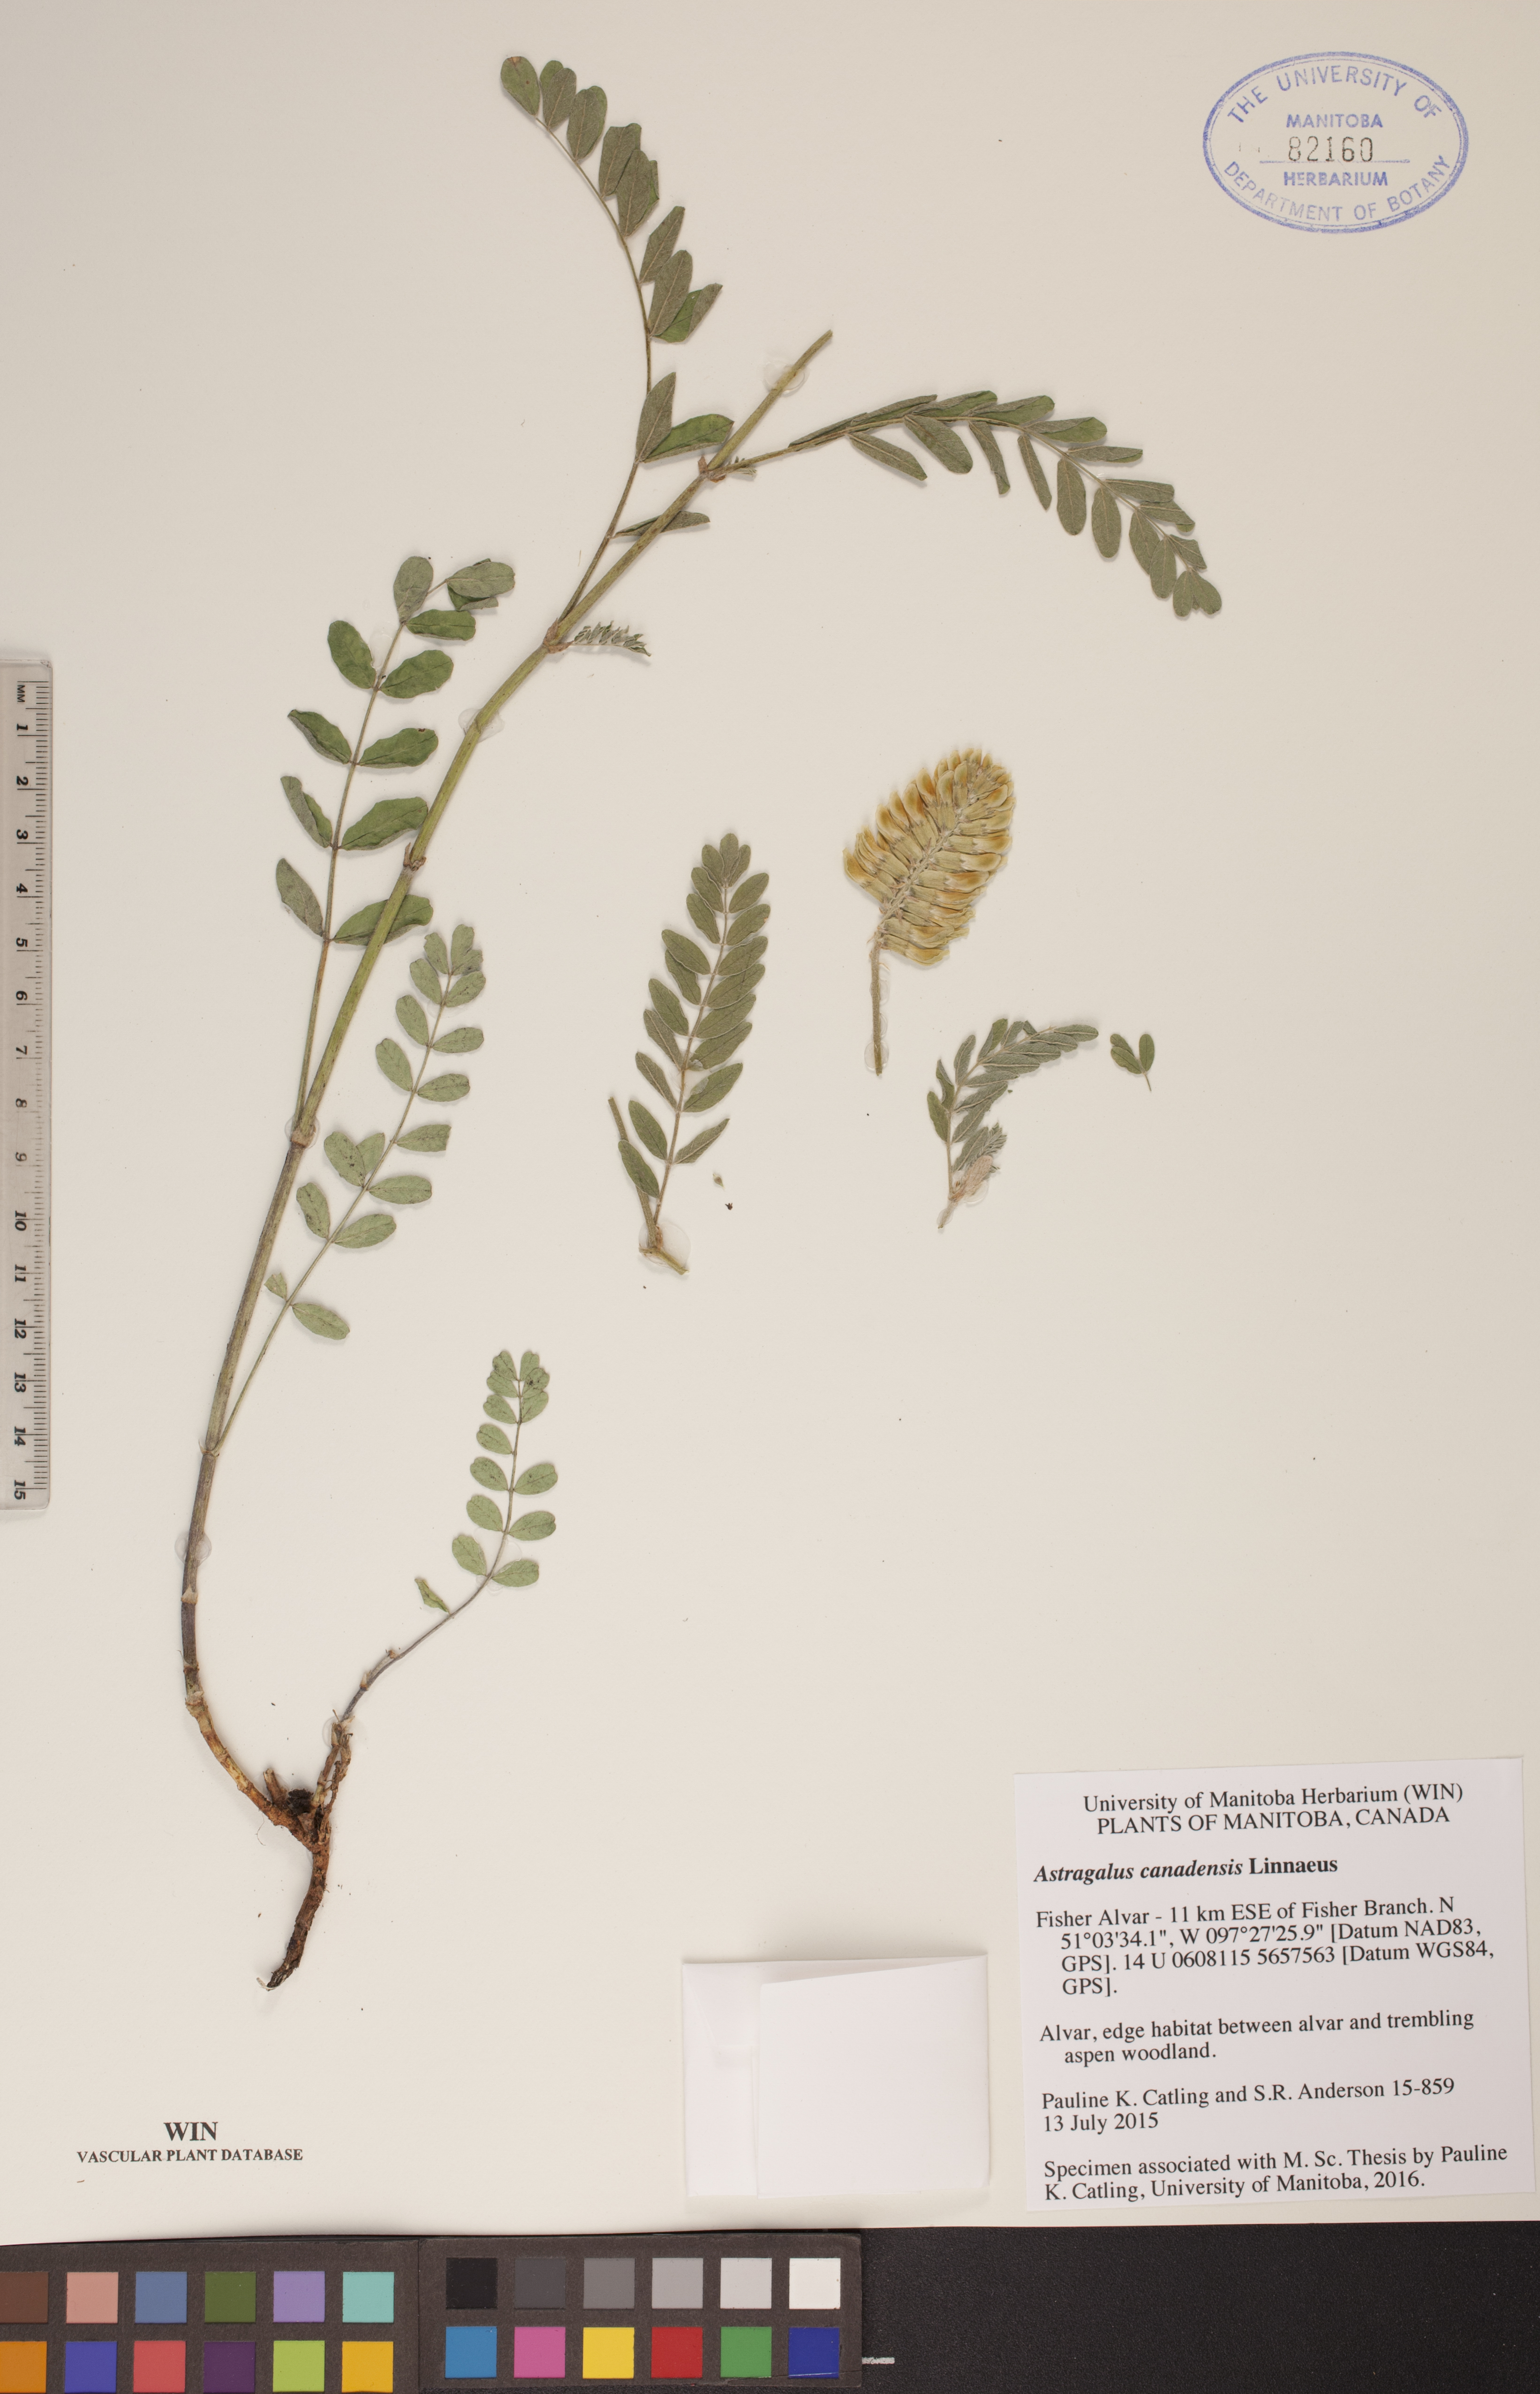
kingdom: Plantae
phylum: Tracheophyta
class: Magnoliopsida
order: Fabales
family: Fabaceae
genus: Astragalus
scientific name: Astragalus canadensis
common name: Canada milk-vetch
